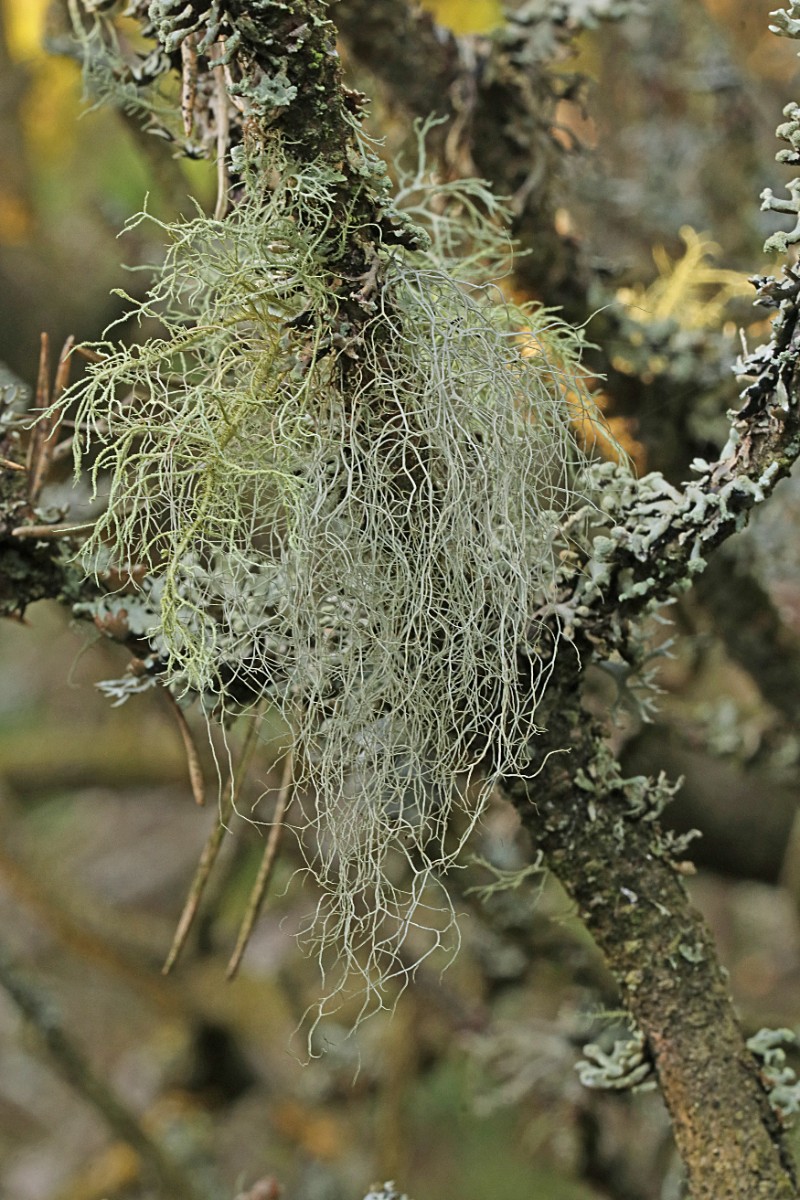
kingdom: Fungi
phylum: Ascomycota
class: Lecanoromycetes
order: Lecanorales
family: Parmeliaceae
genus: Bryoria
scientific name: Bryoria capillaris
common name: grå mankelav
